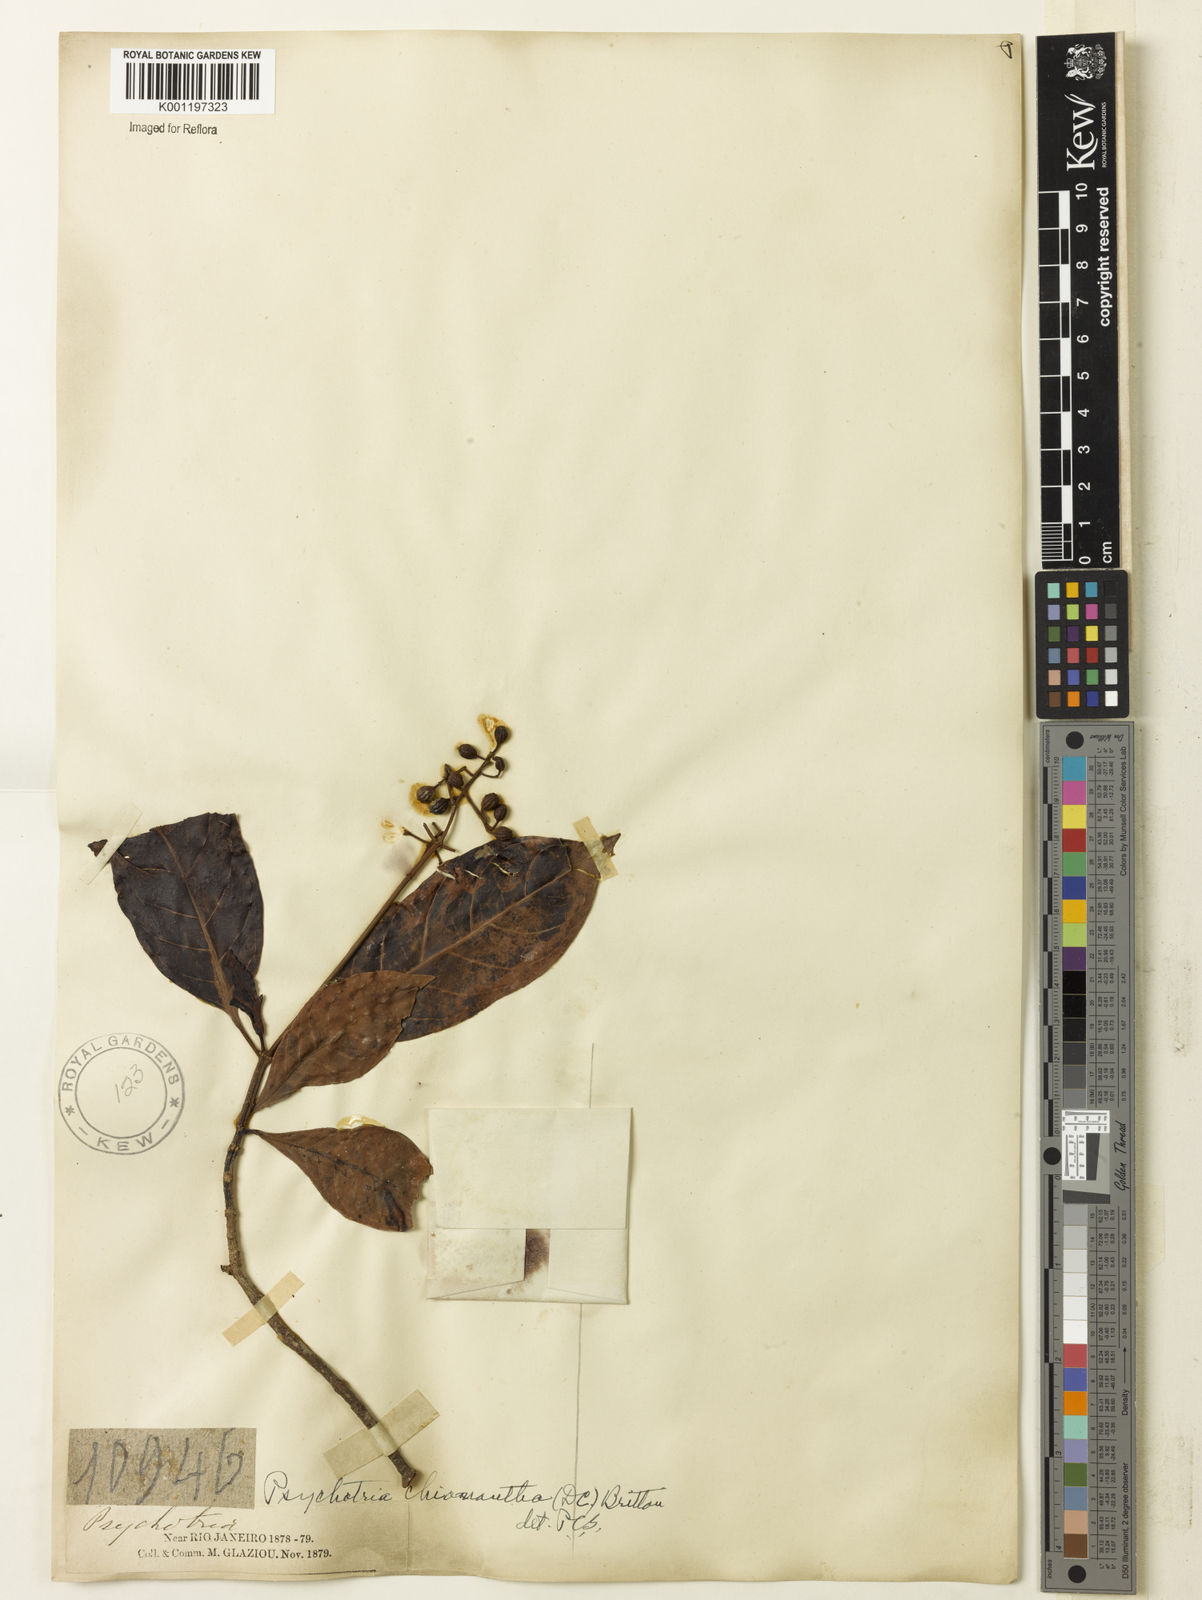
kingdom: Plantae
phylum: Tracheophyta
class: Magnoliopsida
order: Gentianales
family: Rubiaceae
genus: Psychotria
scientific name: Psychotria pedunculosa
